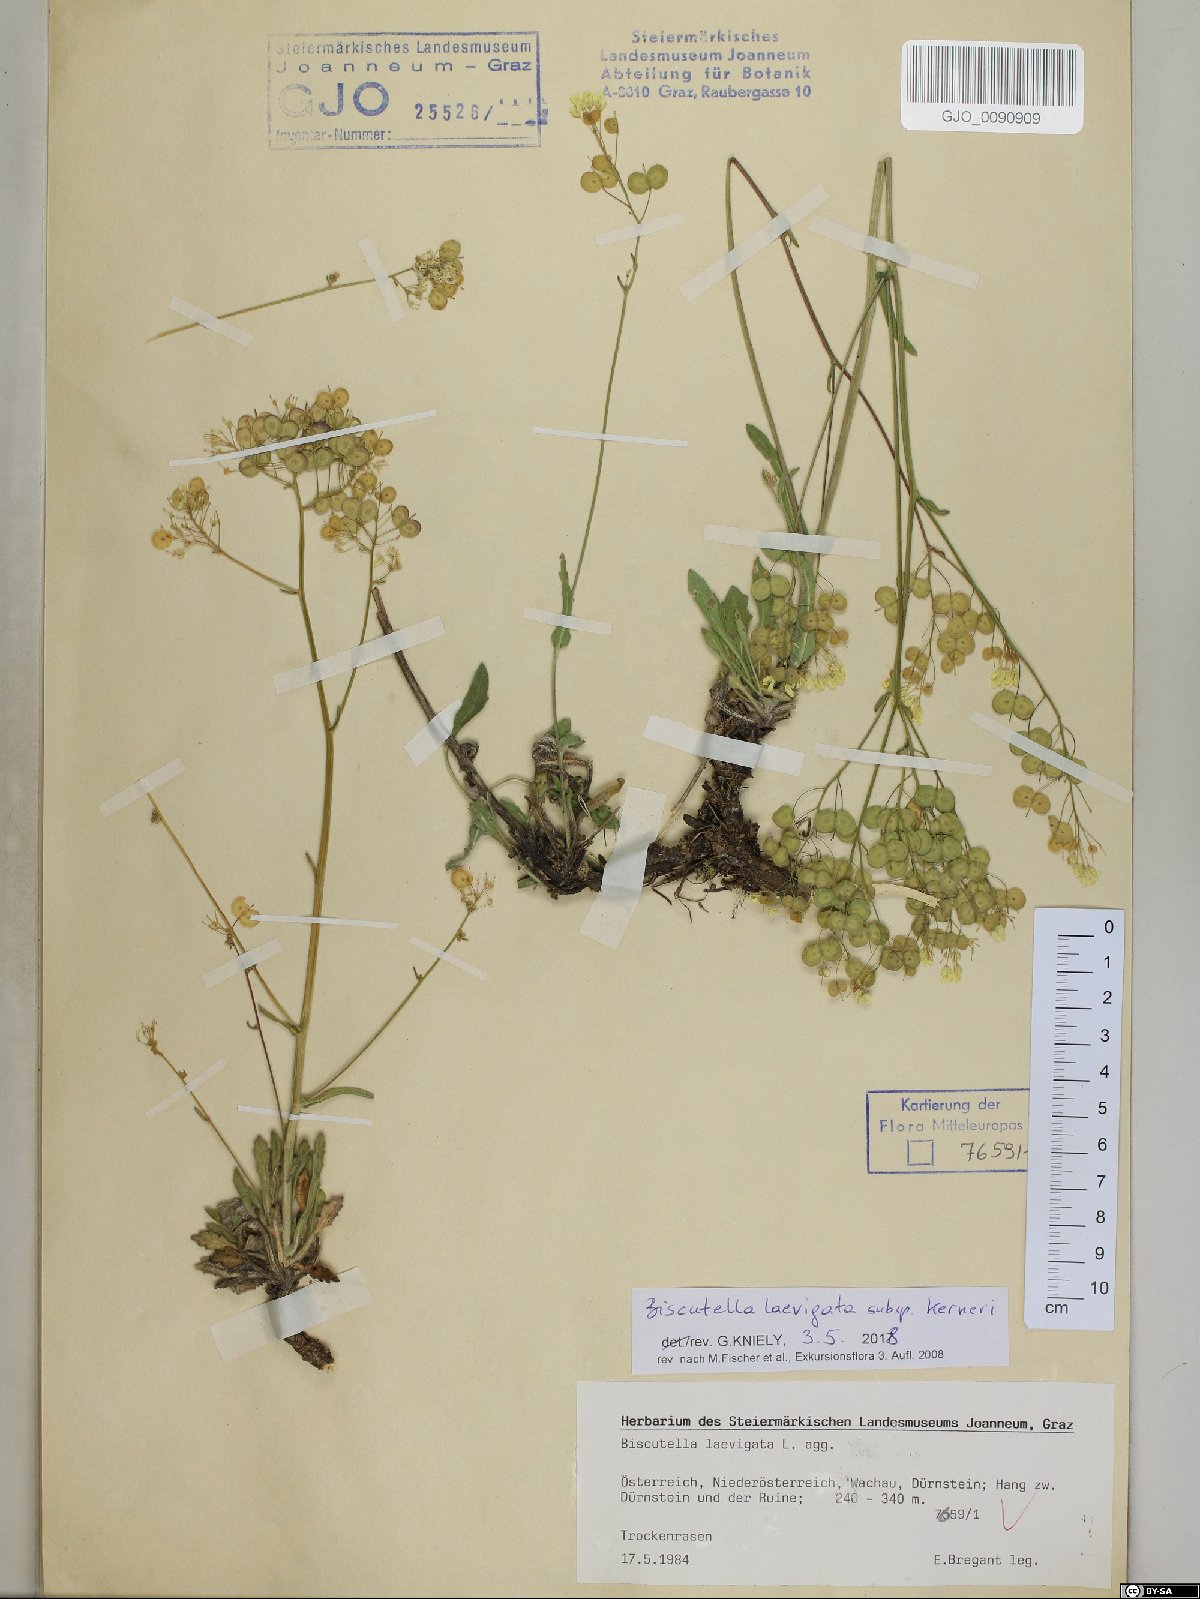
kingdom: Plantae
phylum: Tracheophyta
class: Magnoliopsida
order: Brassicales
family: Brassicaceae
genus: Biscutella
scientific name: Biscutella laevigata
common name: Buckler mustard
